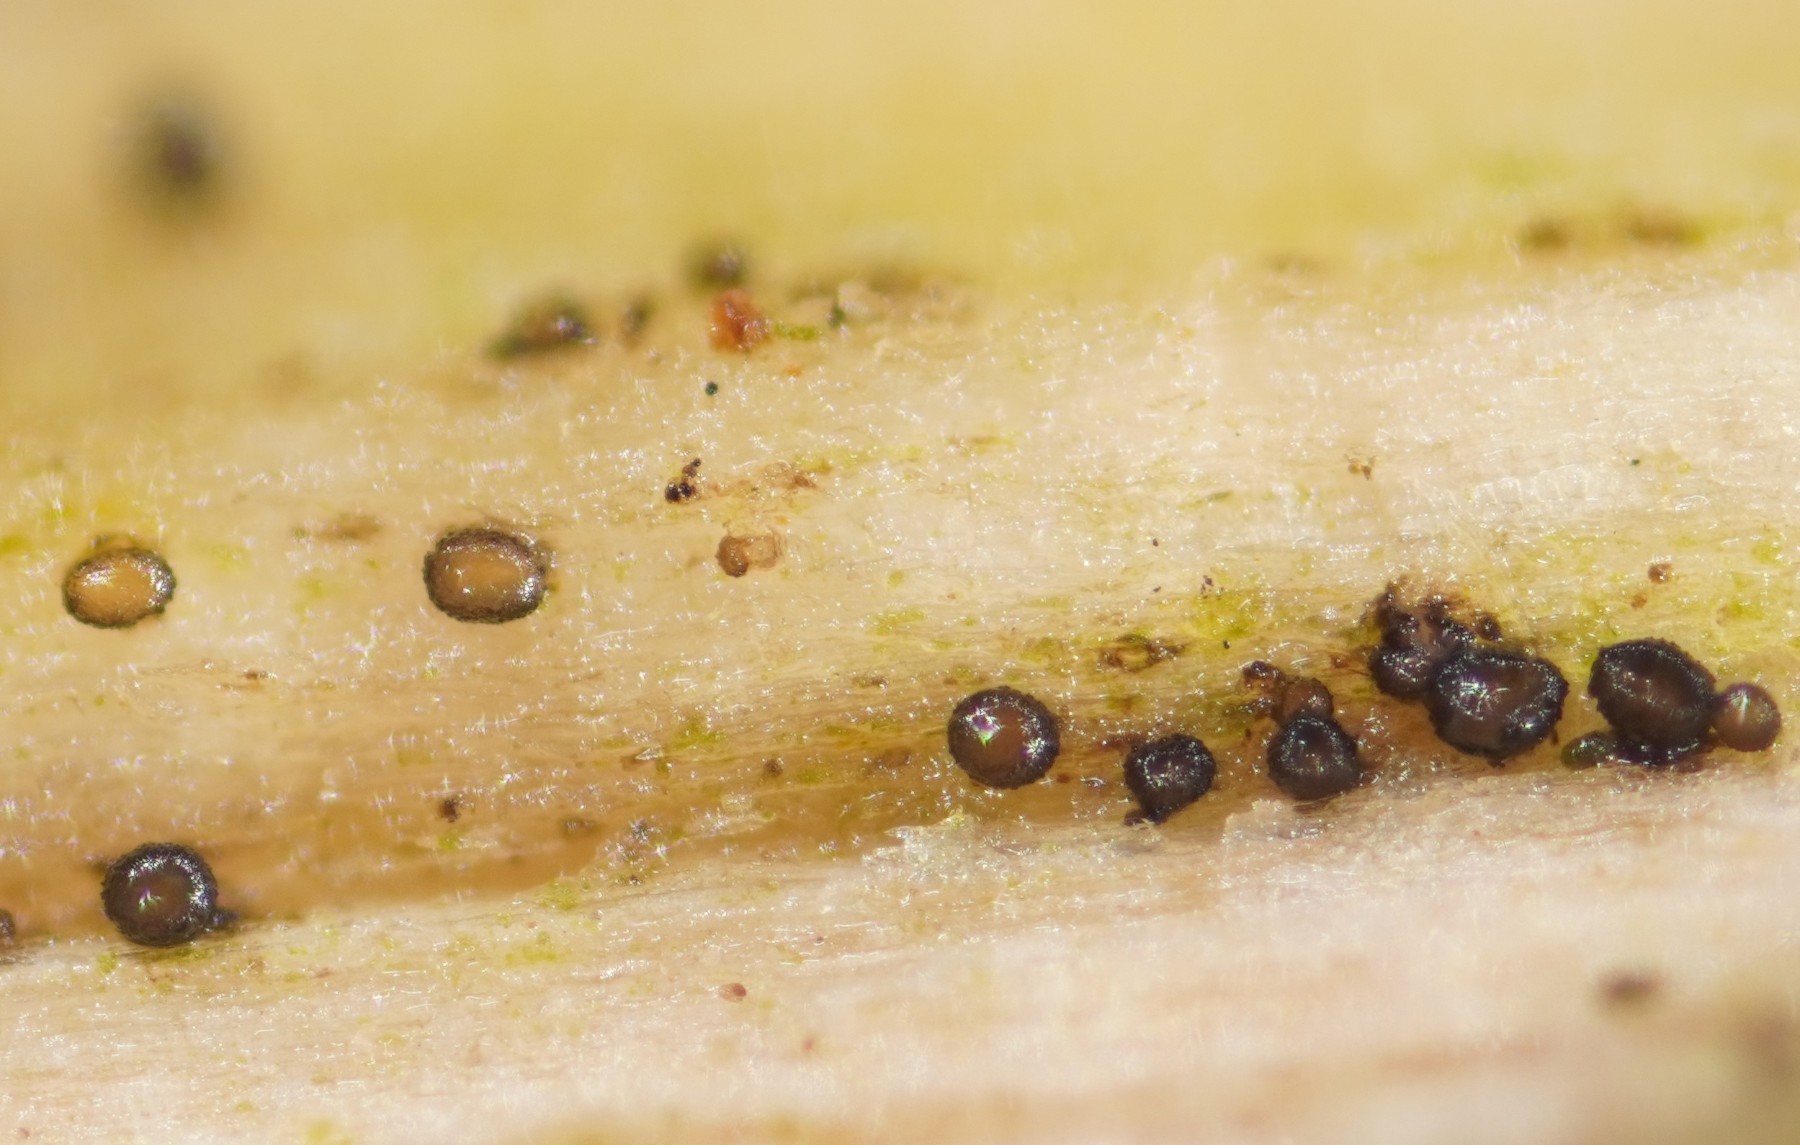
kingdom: Fungi
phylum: Ascomycota
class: Leotiomycetes
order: Helotiales
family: Helotiaceae
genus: Durella
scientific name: Durella connivens
